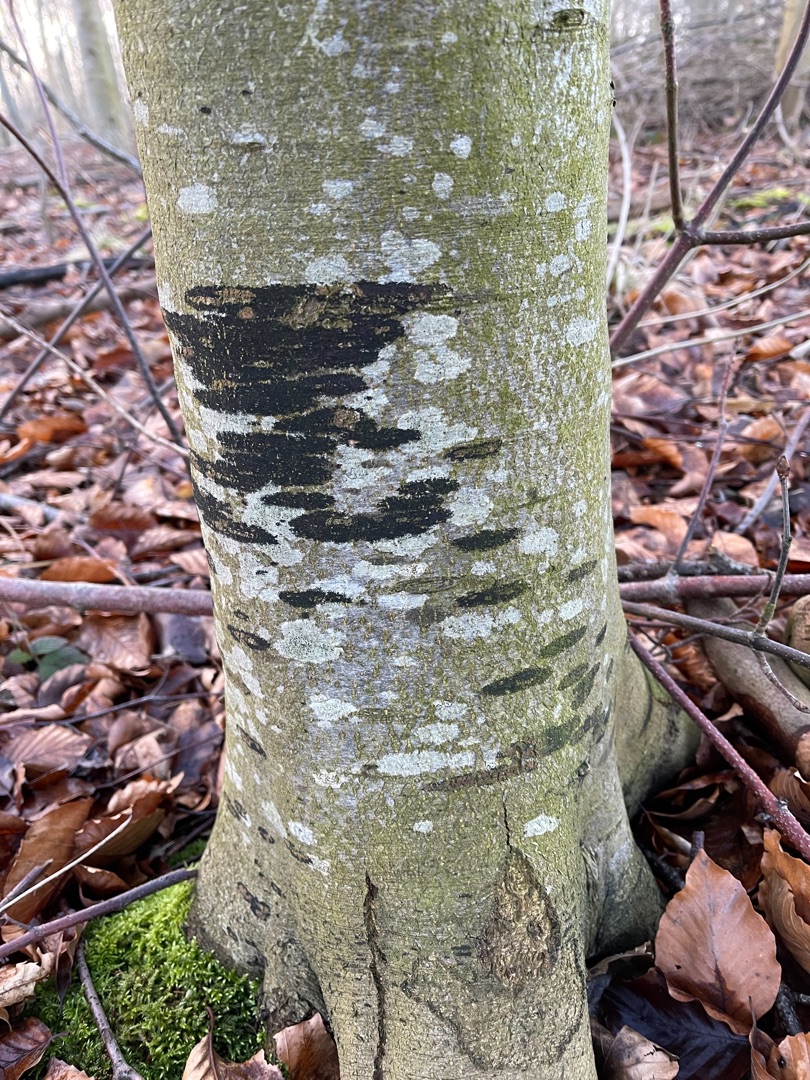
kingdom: Fungi
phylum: Ascomycota
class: Leotiomycetes
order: Rhytismatales
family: Ascodichaenaceae
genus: Ascodichaena
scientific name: Ascodichaena rugosa
